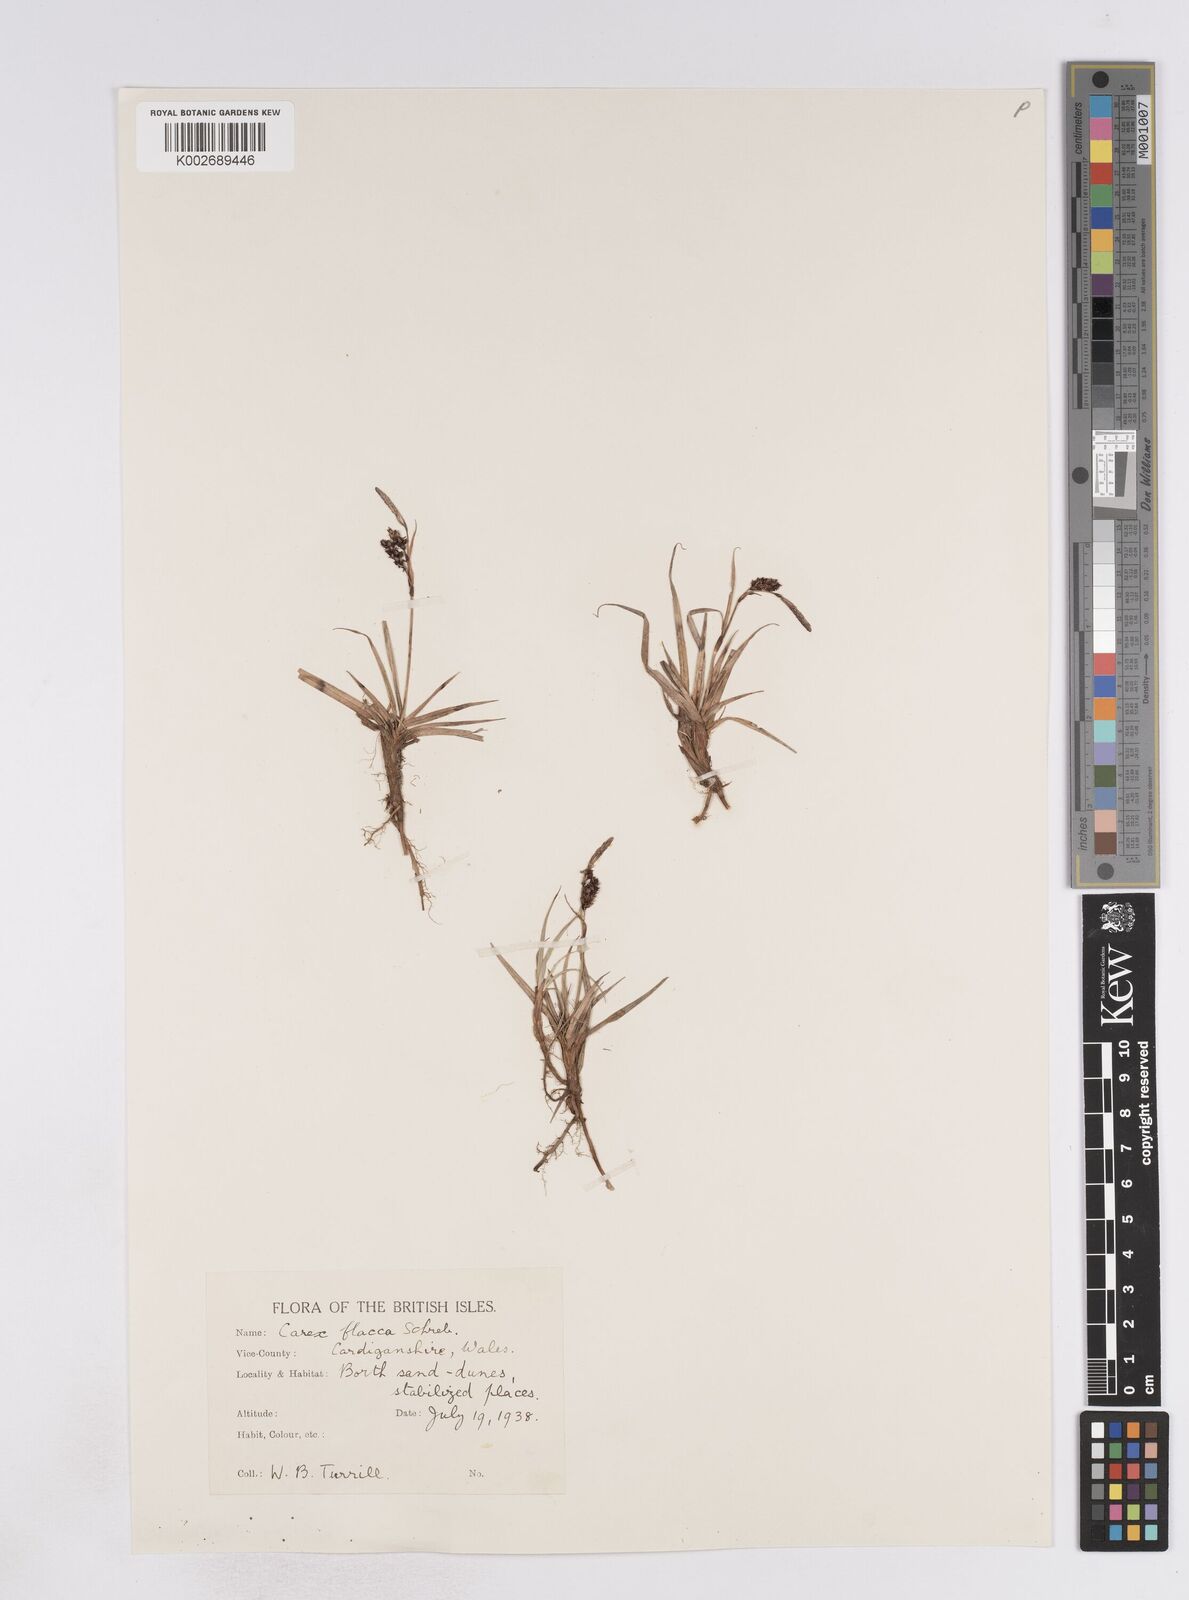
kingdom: Plantae
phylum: Tracheophyta
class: Liliopsida
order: Poales
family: Cyperaceae
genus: Carex
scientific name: Carex flacca
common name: Glaucous sedge
